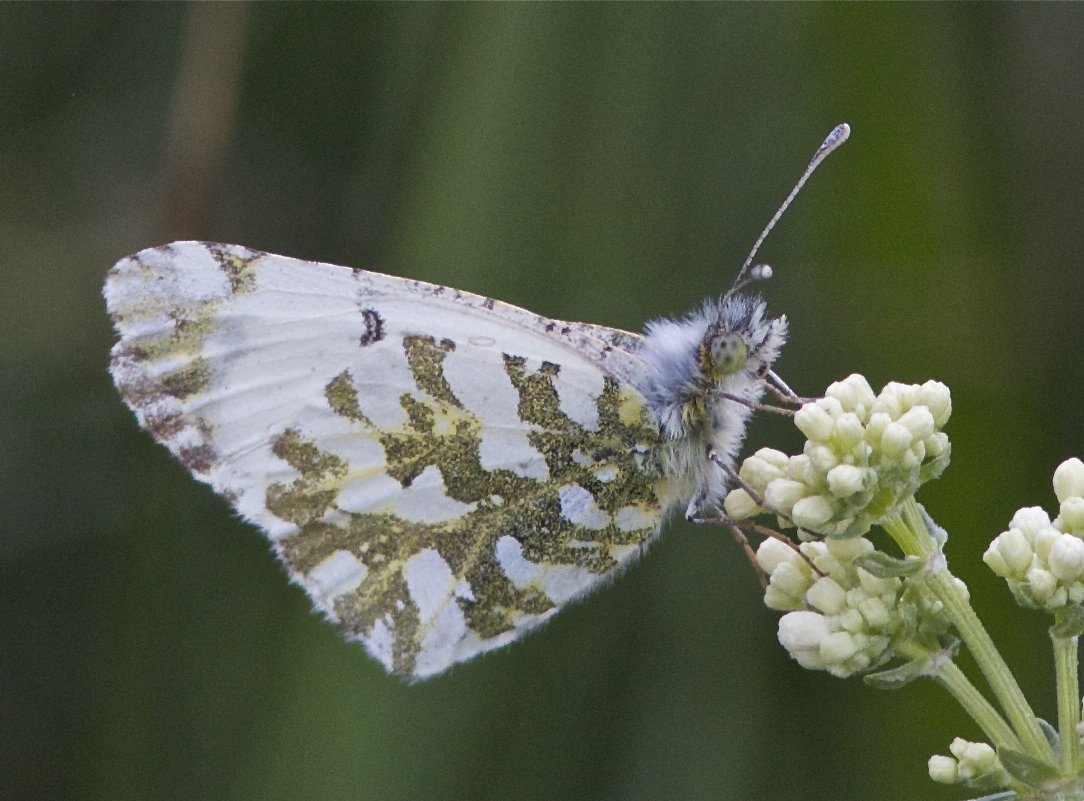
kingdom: Animalia
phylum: Arthropoda
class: Insecta
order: Lepidoptera
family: Pieridae
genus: Euchloe
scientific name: Euchloe ausonides
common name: Large Marble
